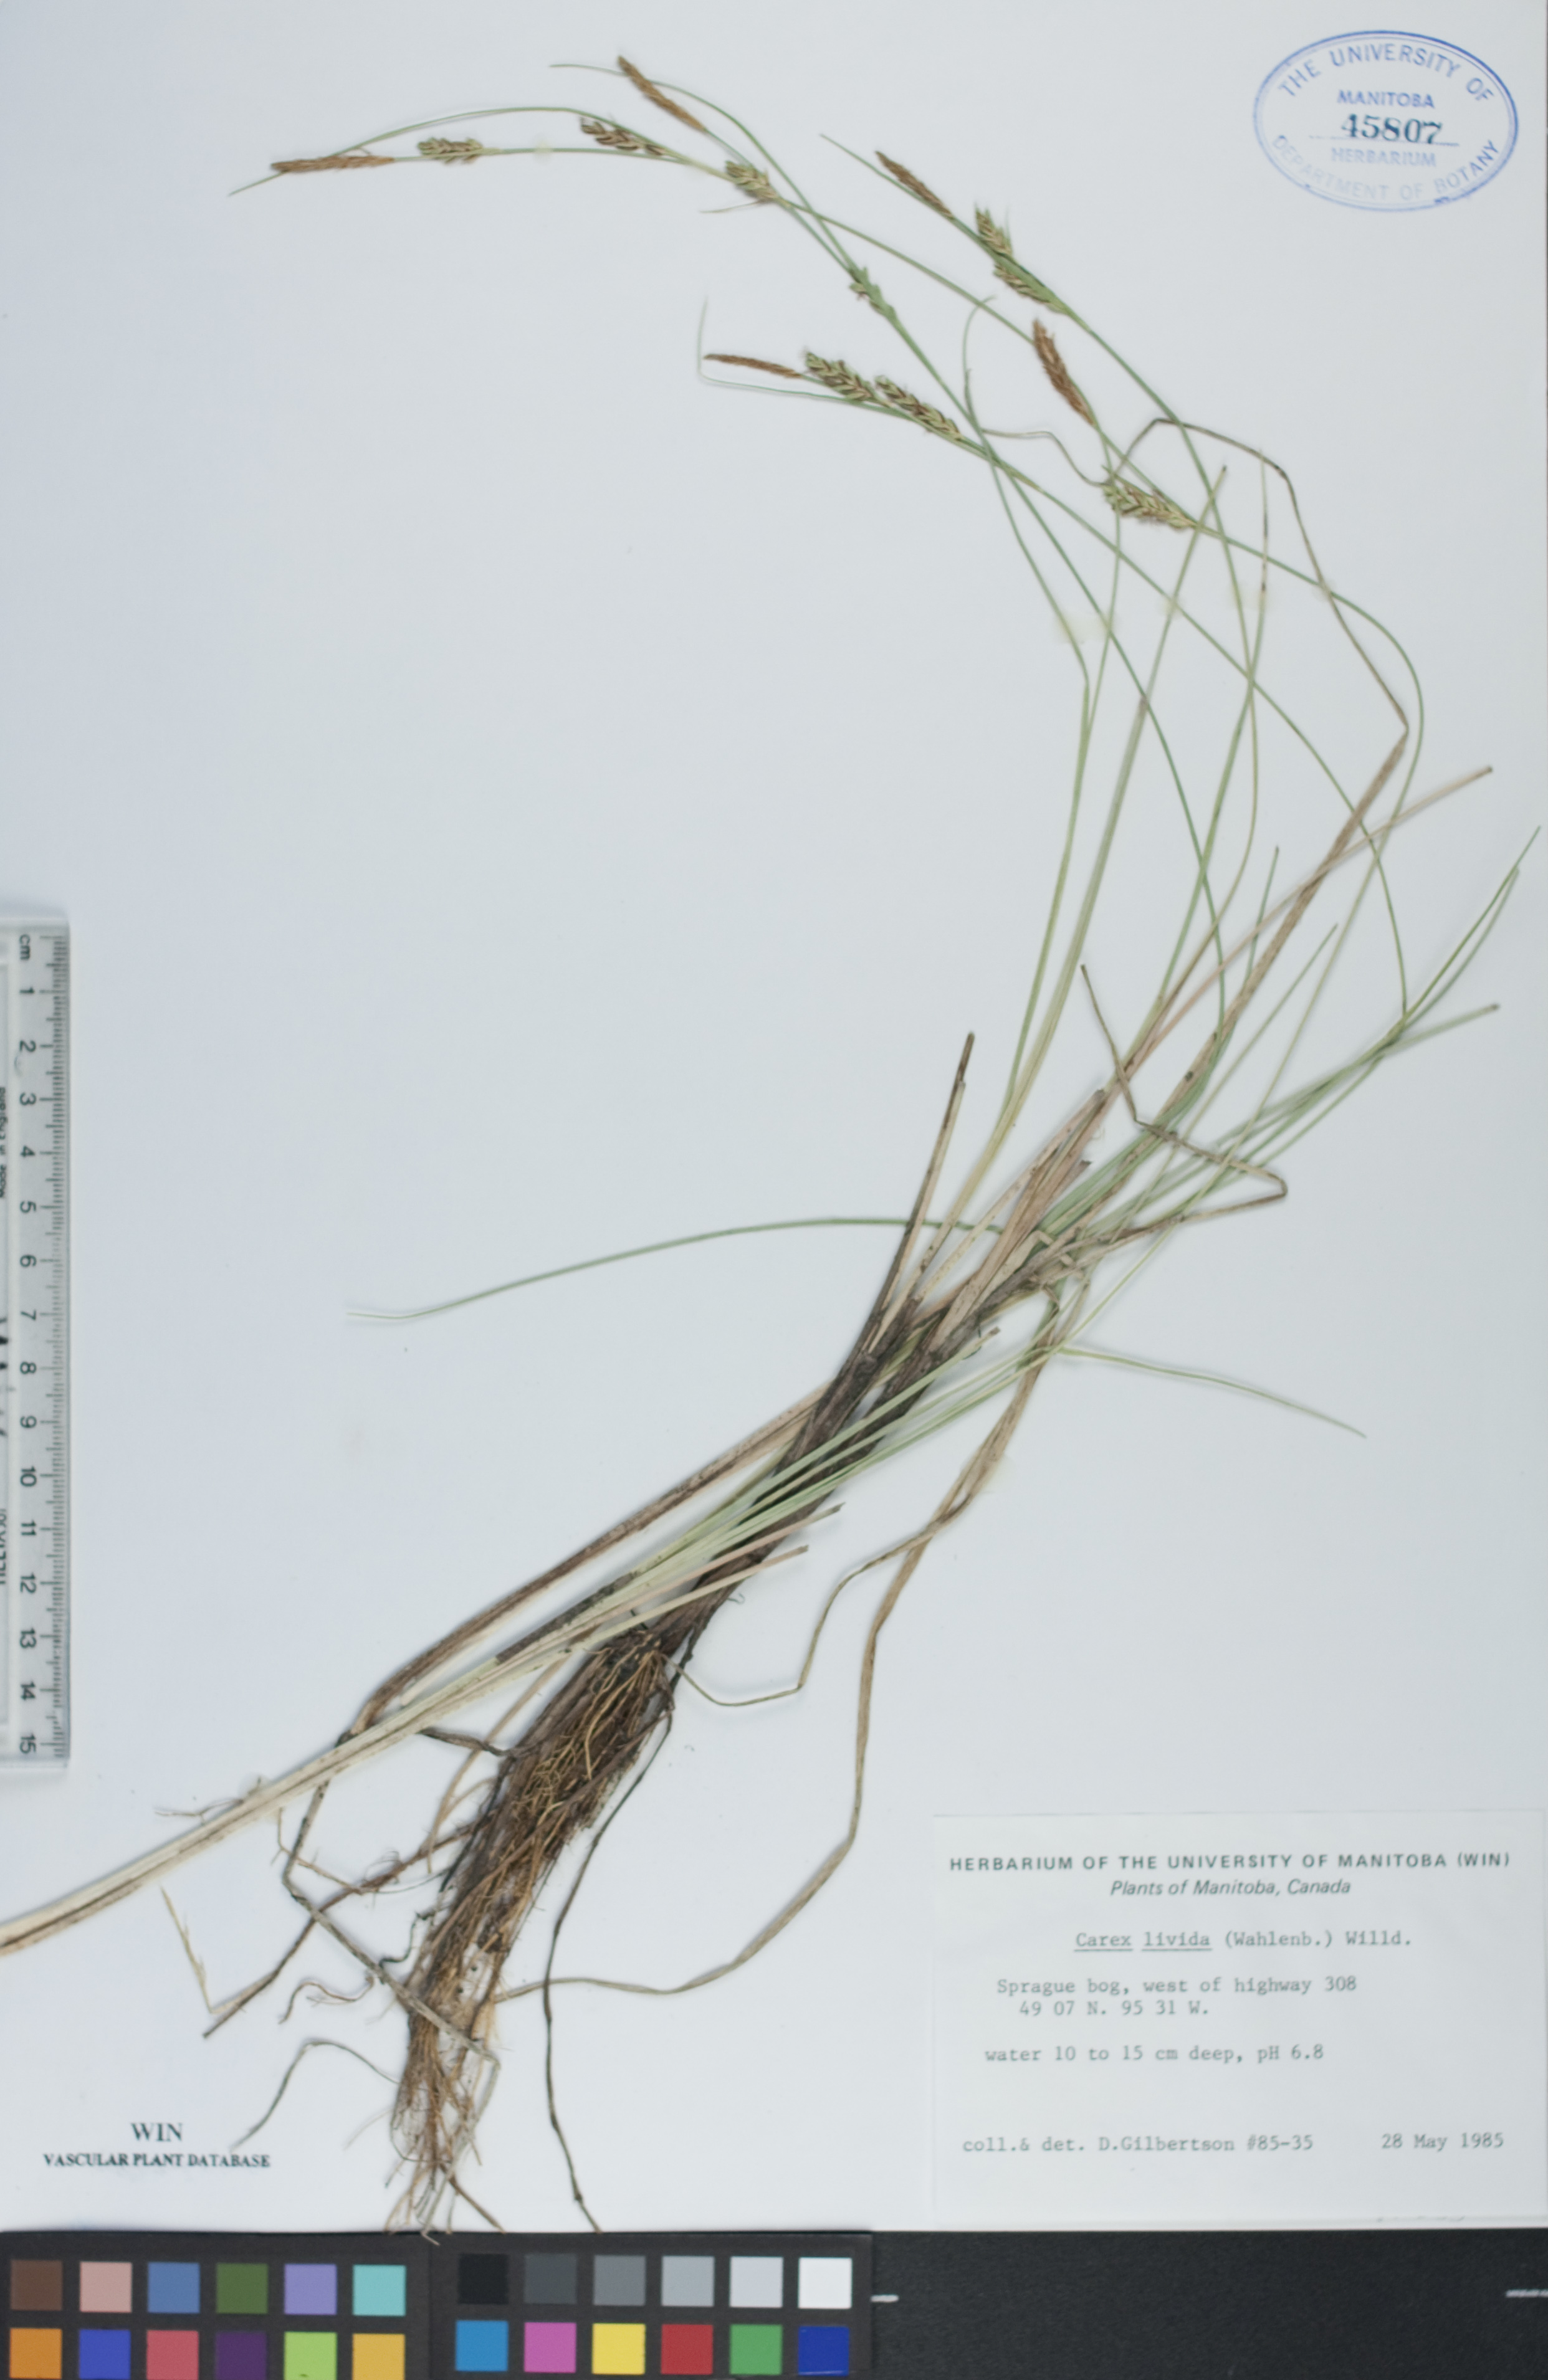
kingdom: Plantae
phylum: Tracheophyta
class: Liliopsida
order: Poales
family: Cyperaceae
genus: Carex
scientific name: Carex livida
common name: Livid sedge
